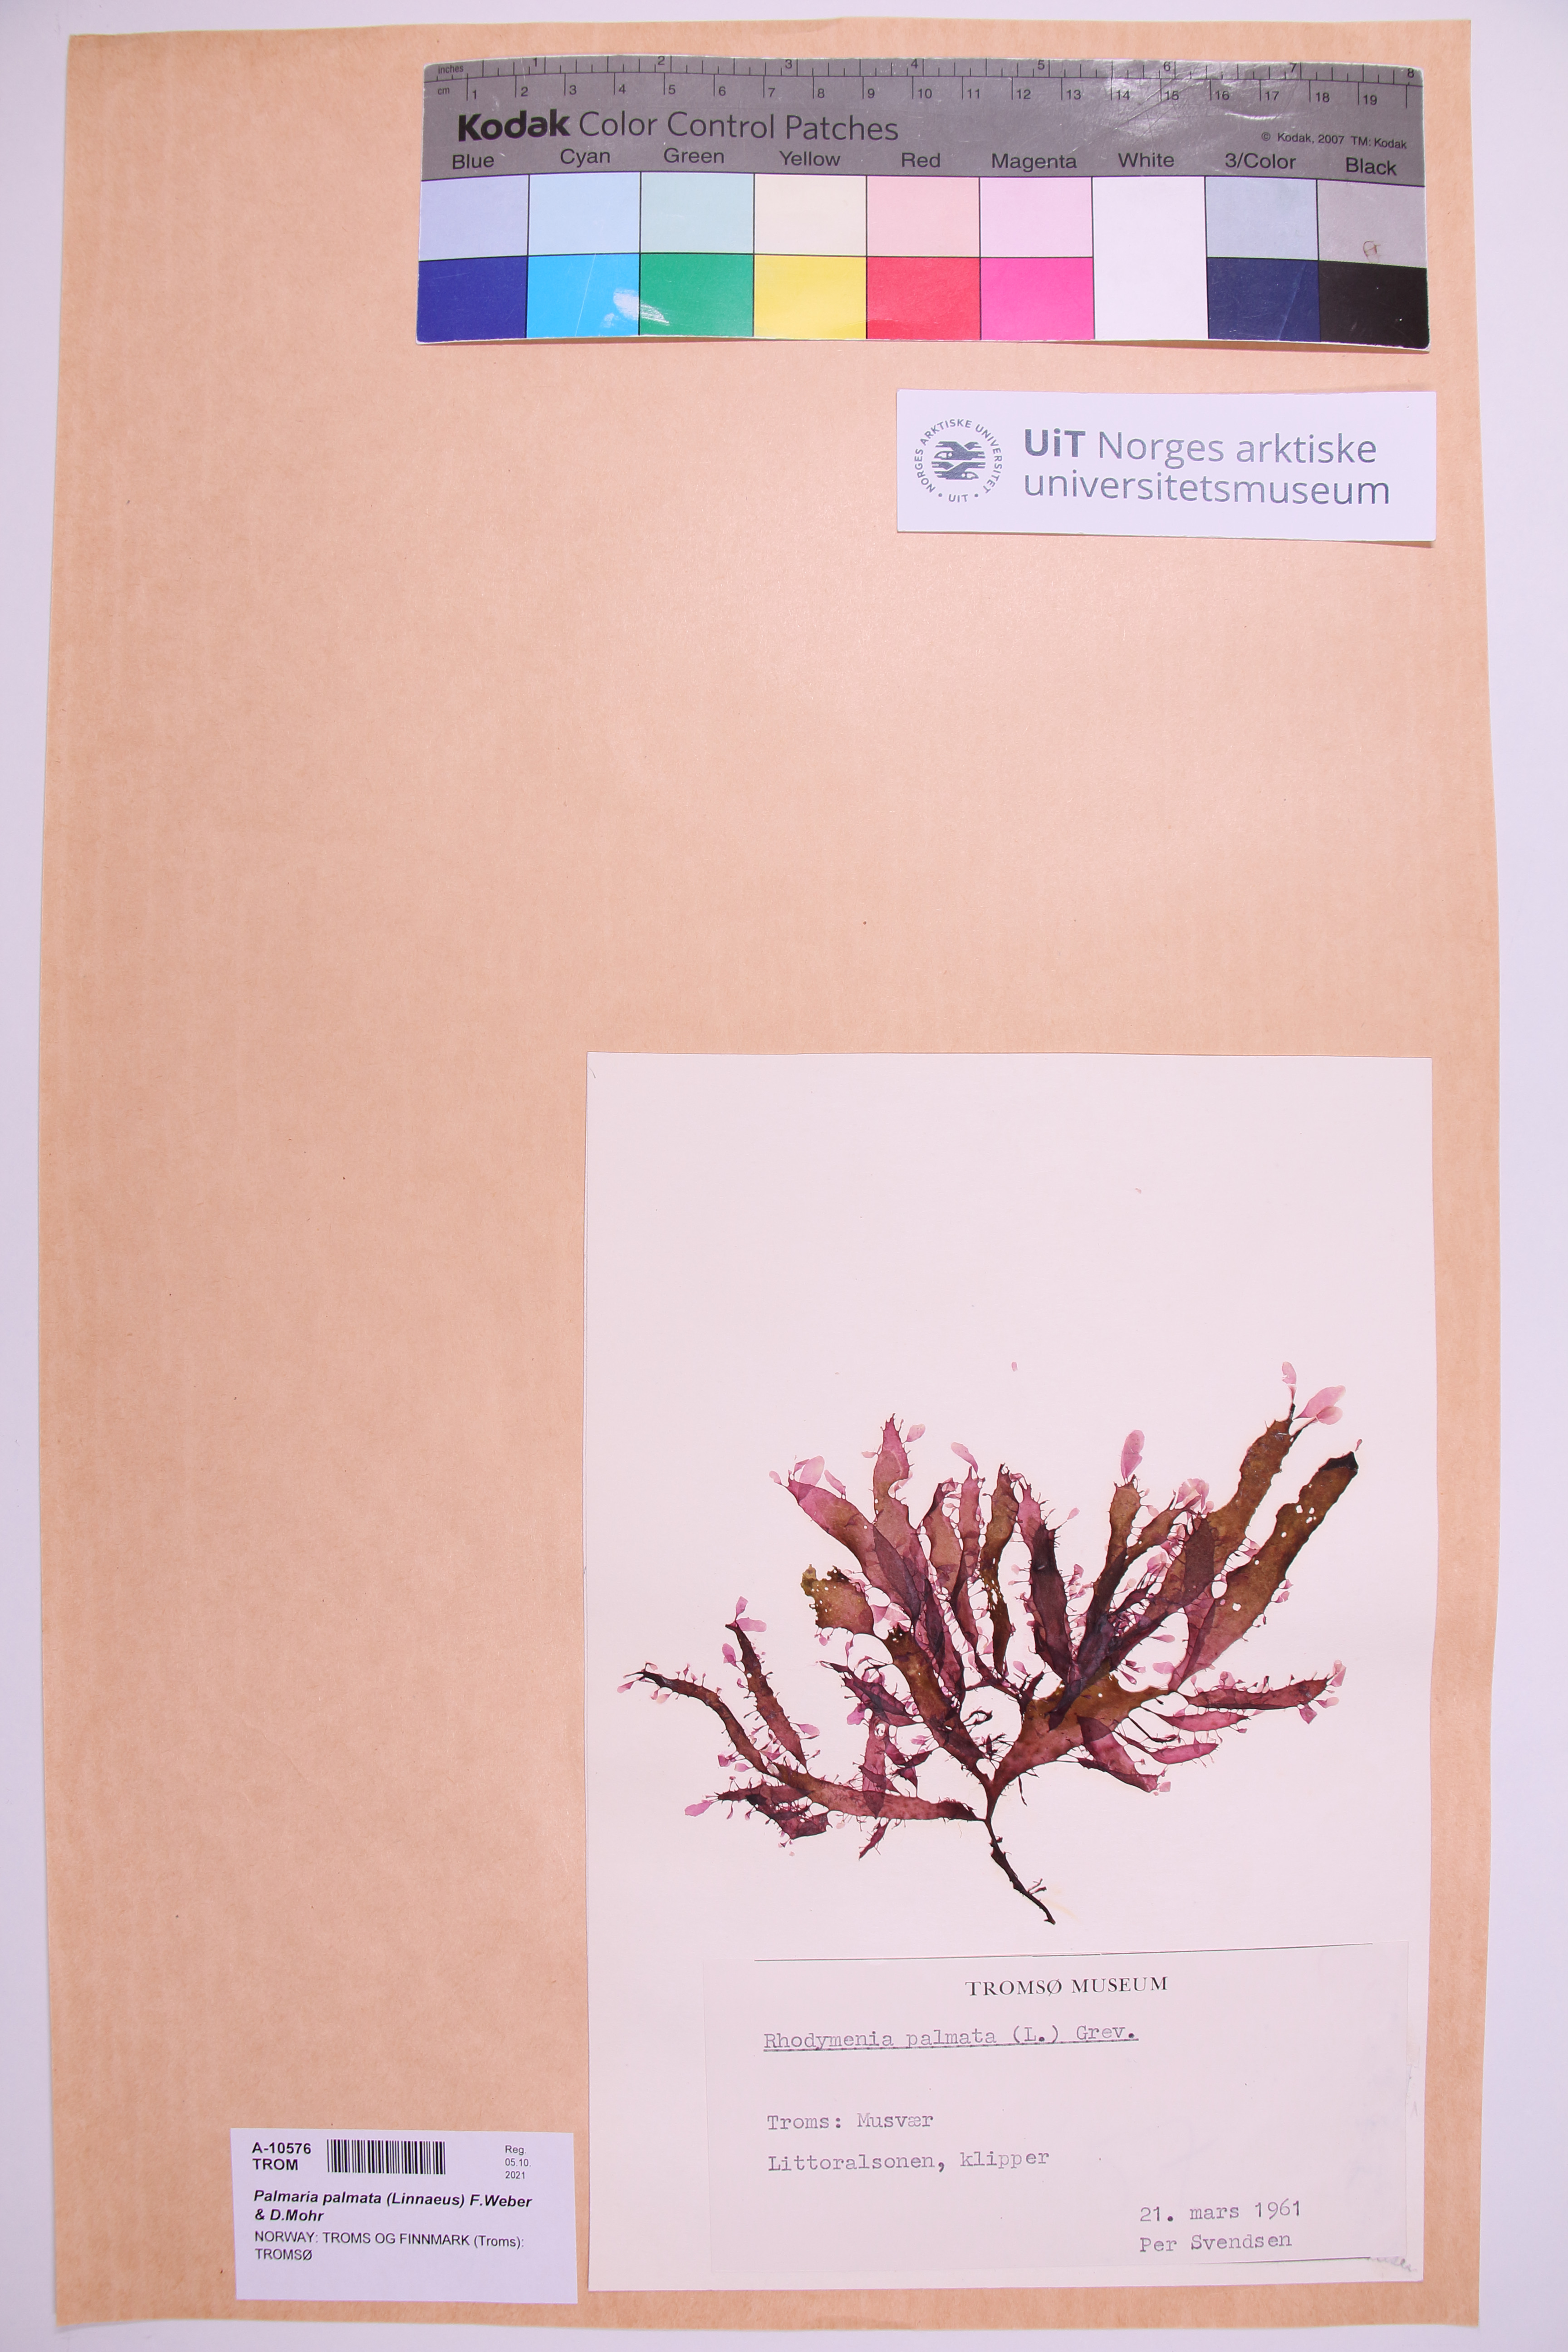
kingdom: Plantae
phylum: Rhodophyta
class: Florideophyceae
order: Palmariales
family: Palmariaceae
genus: Palmaria
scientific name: Palmaria palmata
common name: Dulse
